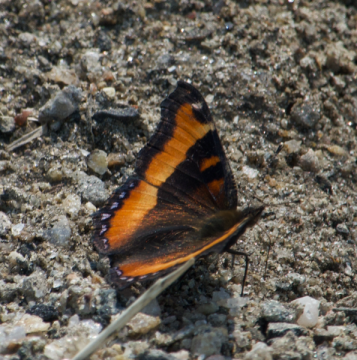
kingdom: Animalia
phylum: Arthropoda
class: Insecta
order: Lepidoptera
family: Nymphalidae
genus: Aglais
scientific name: Aglais milberti
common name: Milbert's Tortoiseshell
